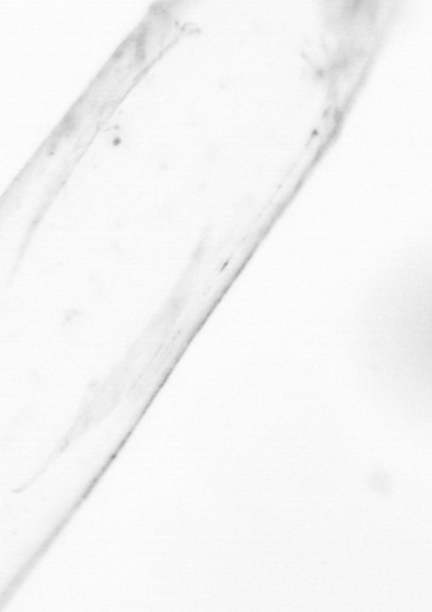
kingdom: Animalia
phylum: Chaetognatha
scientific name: Chaetognatha
